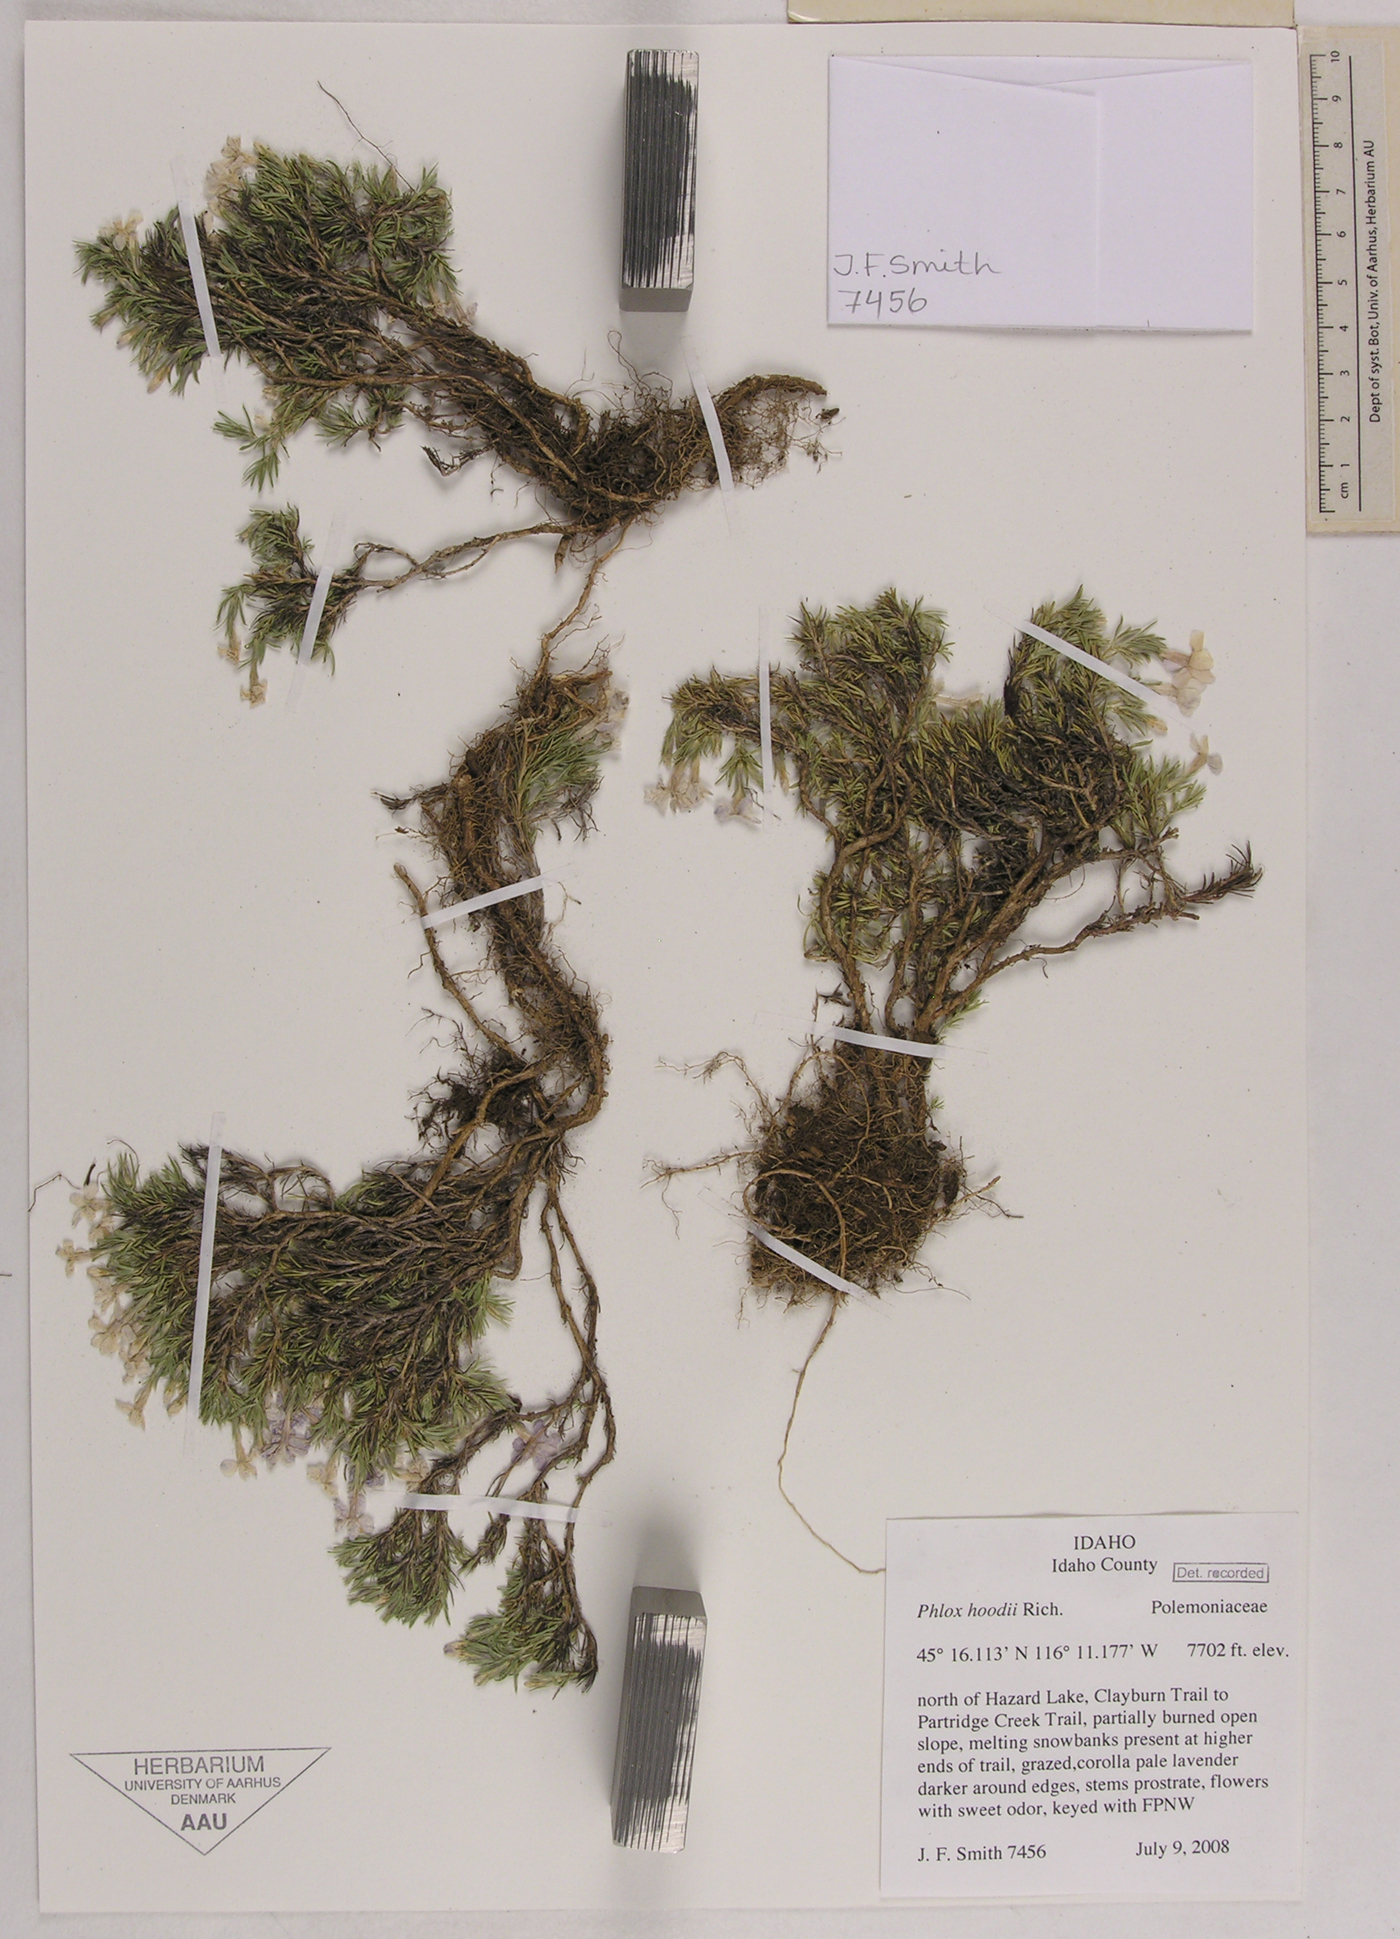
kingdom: Plantae
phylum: Tracheophyta
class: Magnoliopsida
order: Ericales
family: Polemoniaceae
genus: Phlox
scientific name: Phlox hoodii
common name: Moss phlox
